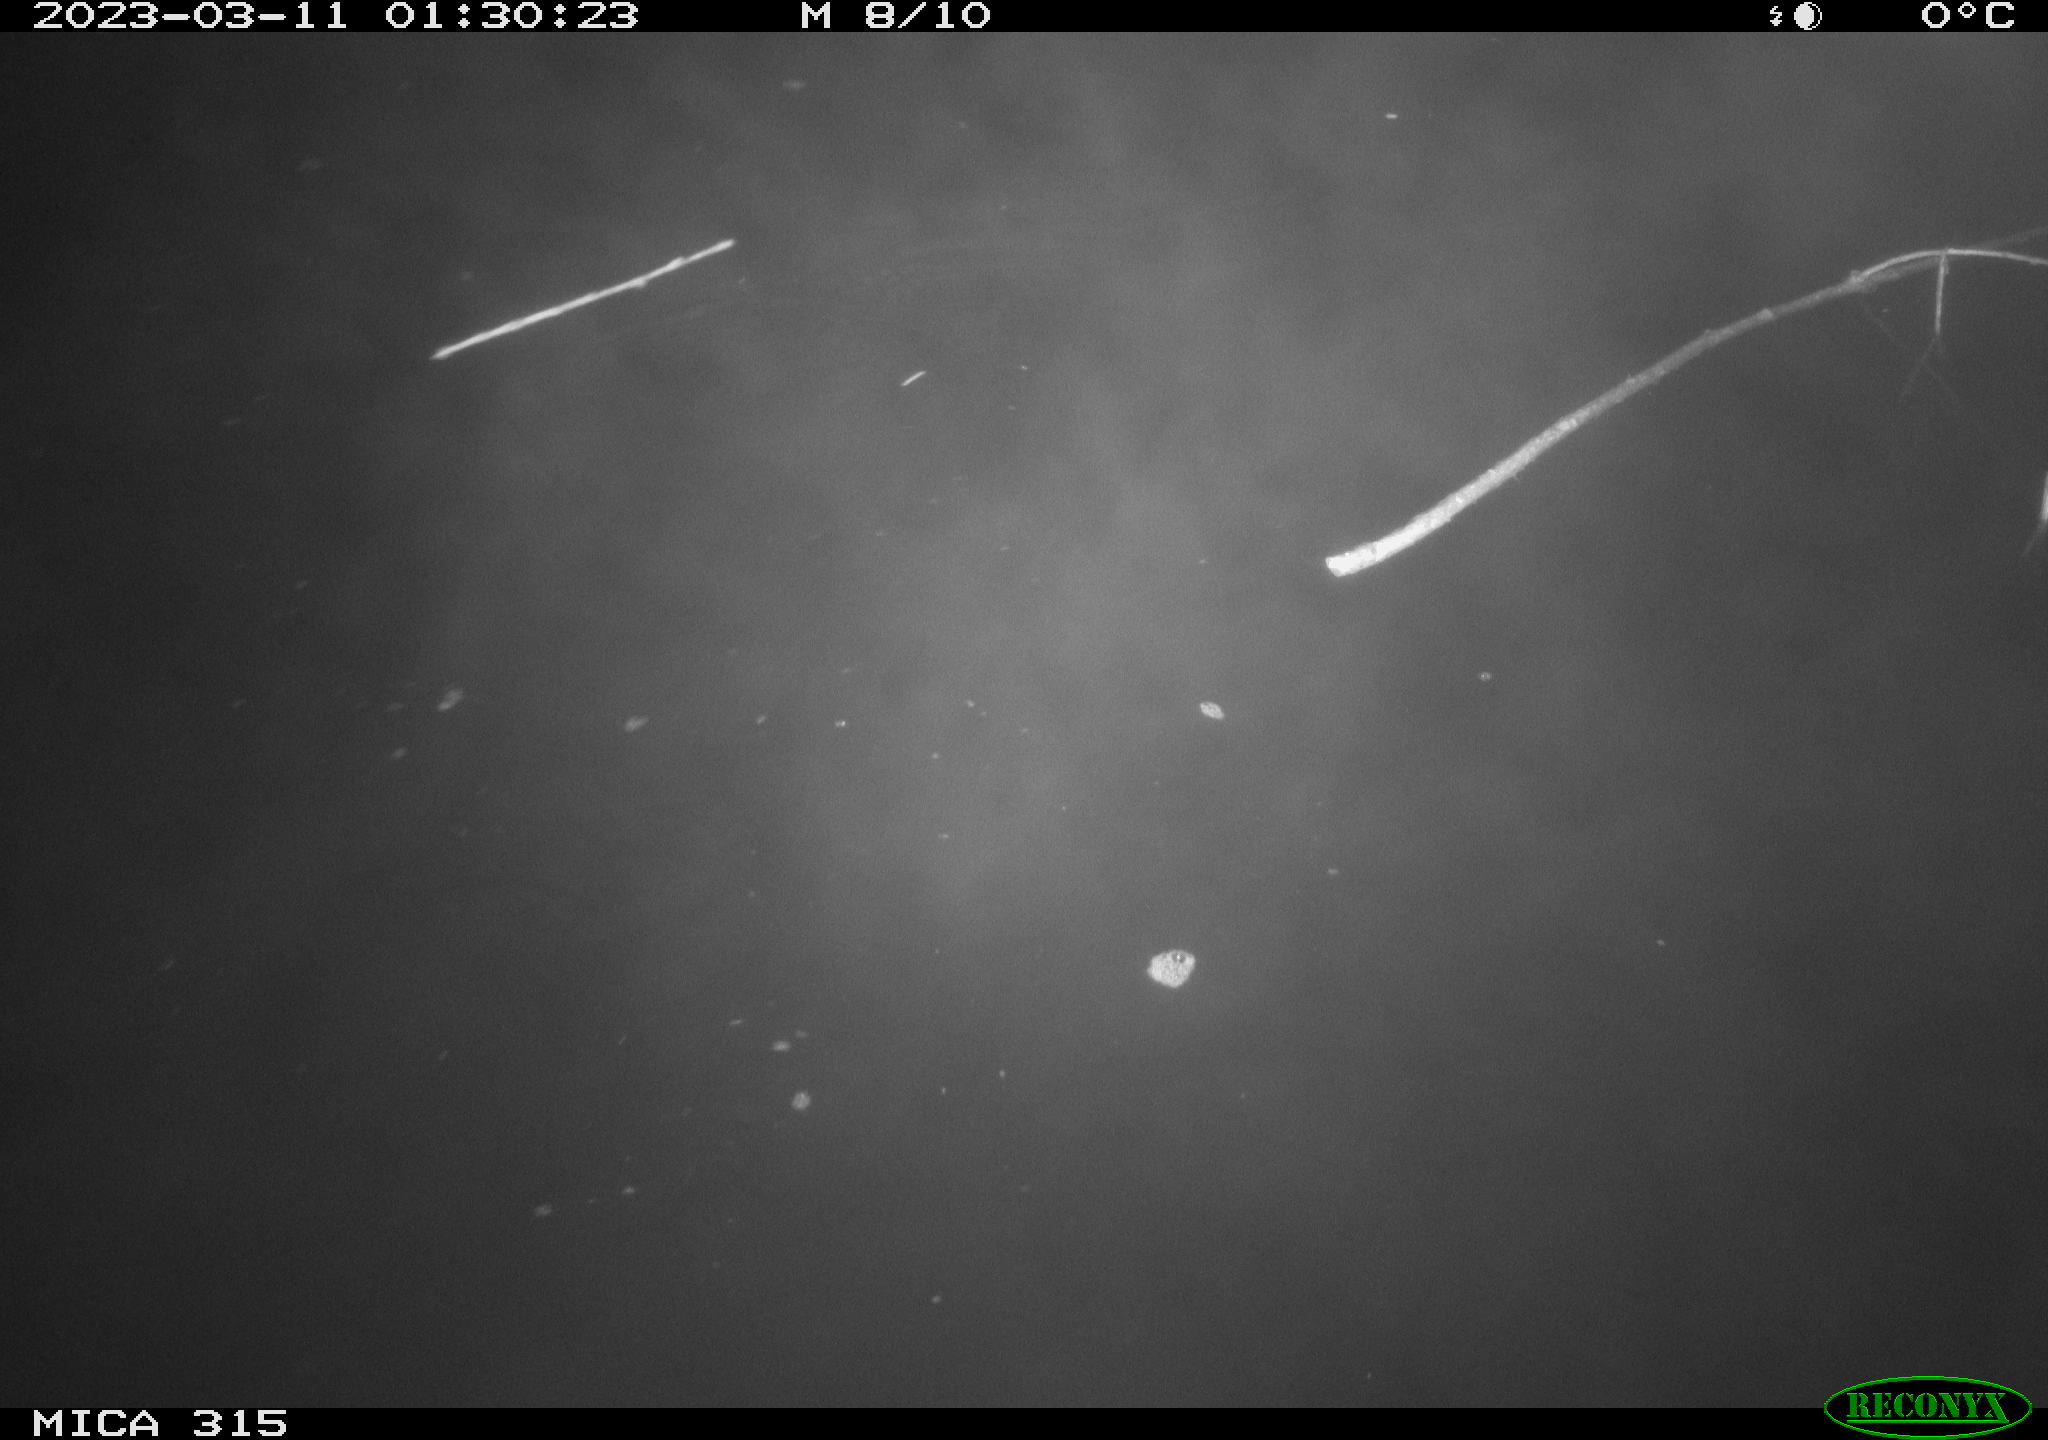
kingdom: Animalia
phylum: Chordata
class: Aves
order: Anseriformes
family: Anatidae
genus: Anas
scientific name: Anas
